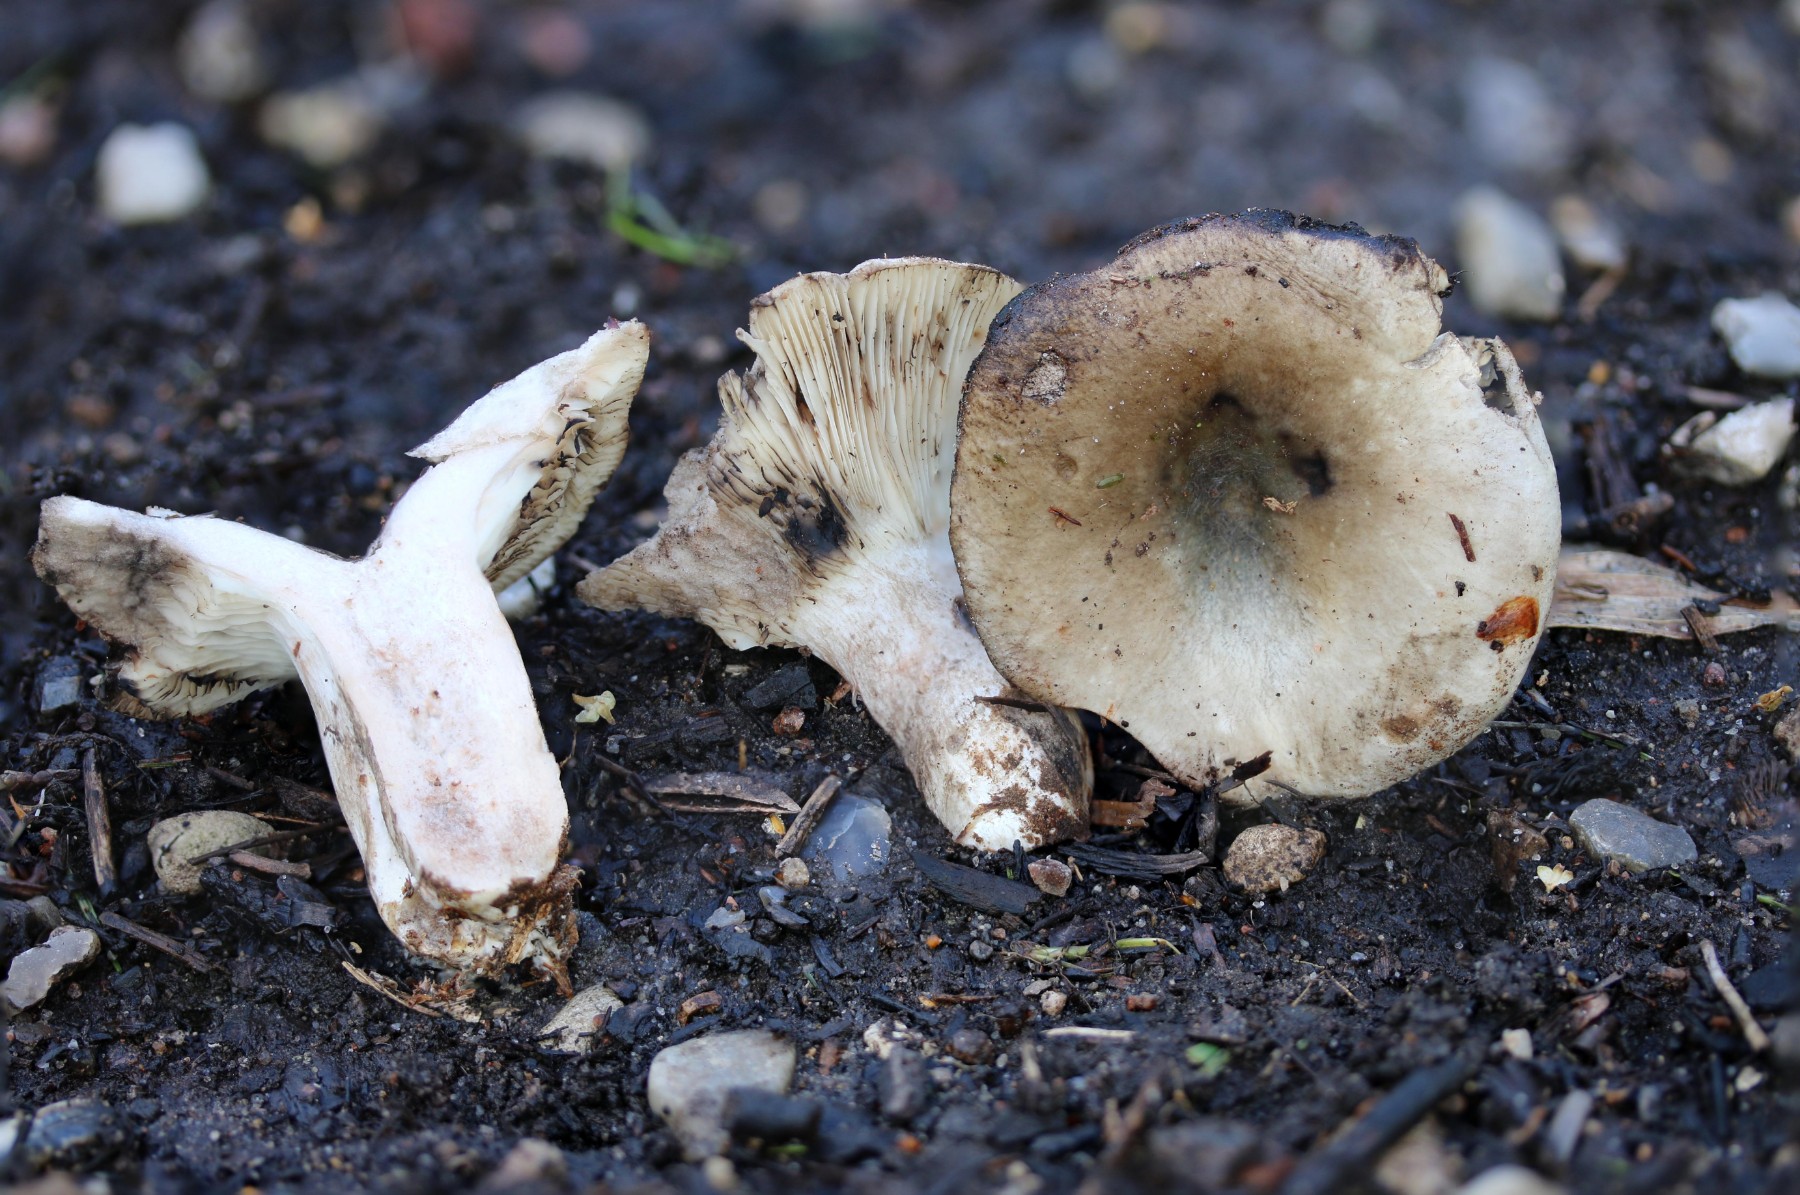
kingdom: Fungi
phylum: Basidiomycota
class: Agaricomycetes
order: Russulales
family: Russulaceae
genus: Russula
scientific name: Russula densifolia
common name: tætbladet skørhat
